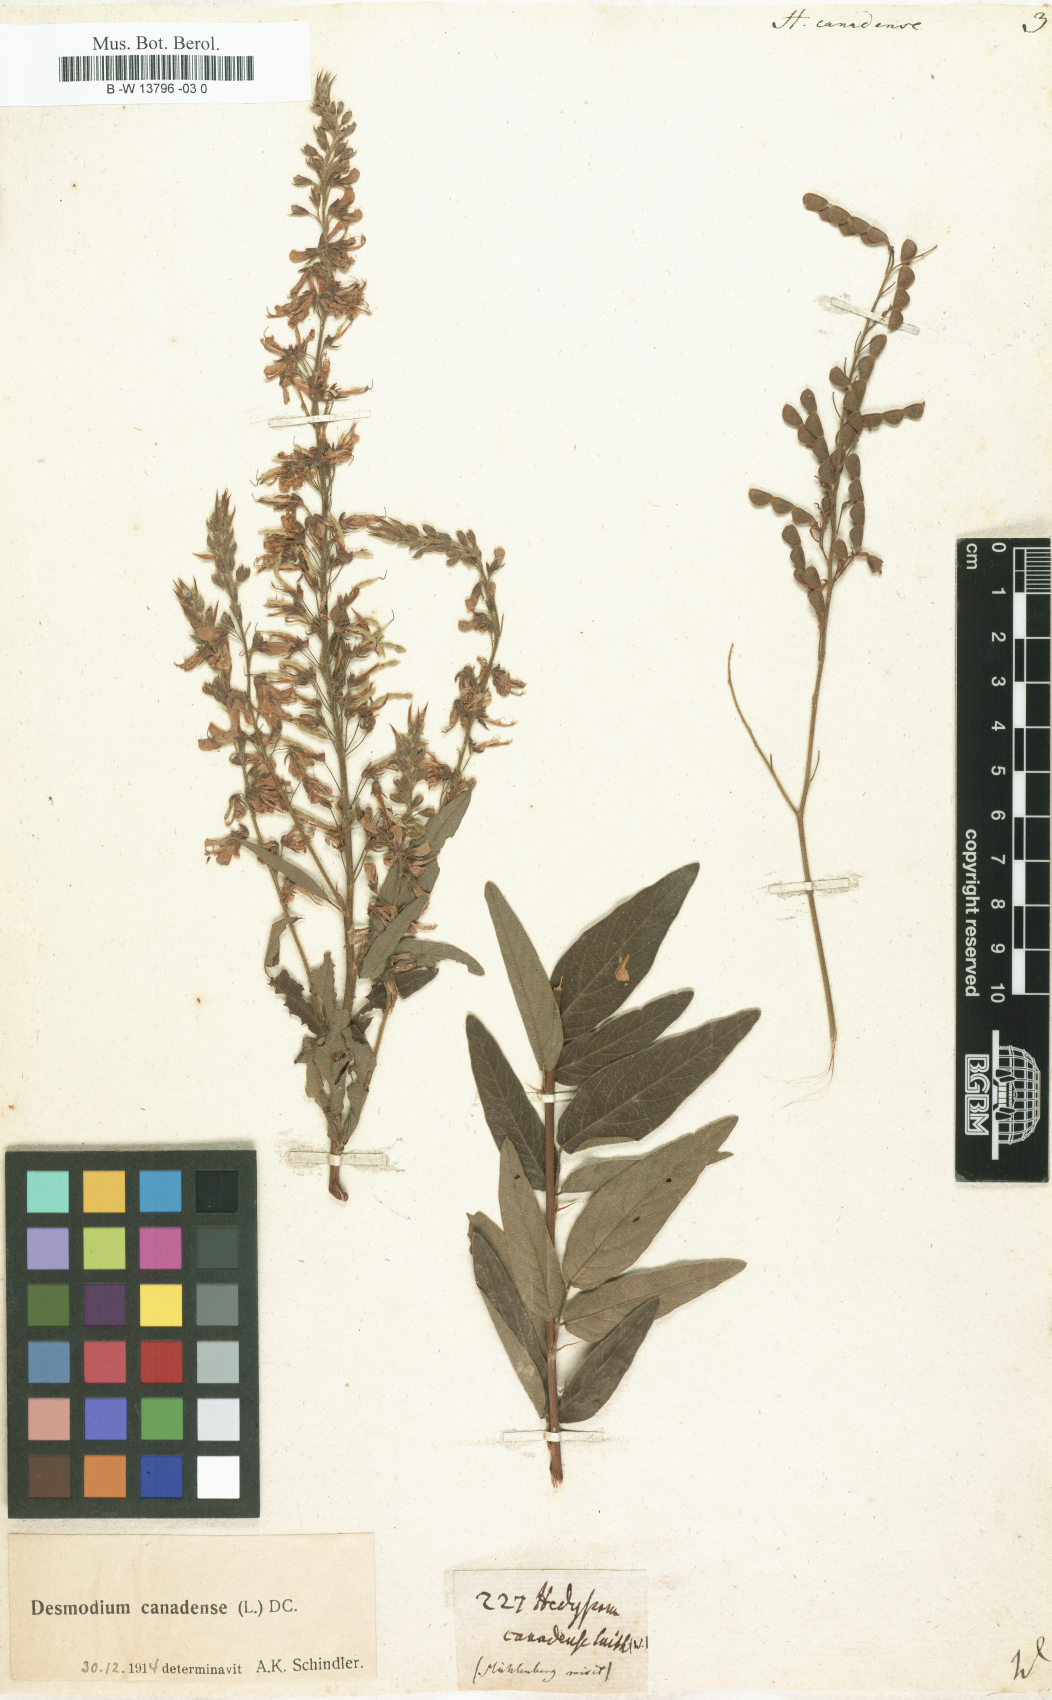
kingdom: Plantae
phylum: Tracheophyta
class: Magnoliopsida
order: Fabales
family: Fabaceae
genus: Desmodium
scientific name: Desmodium canadense
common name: Canada tick-trefoil
